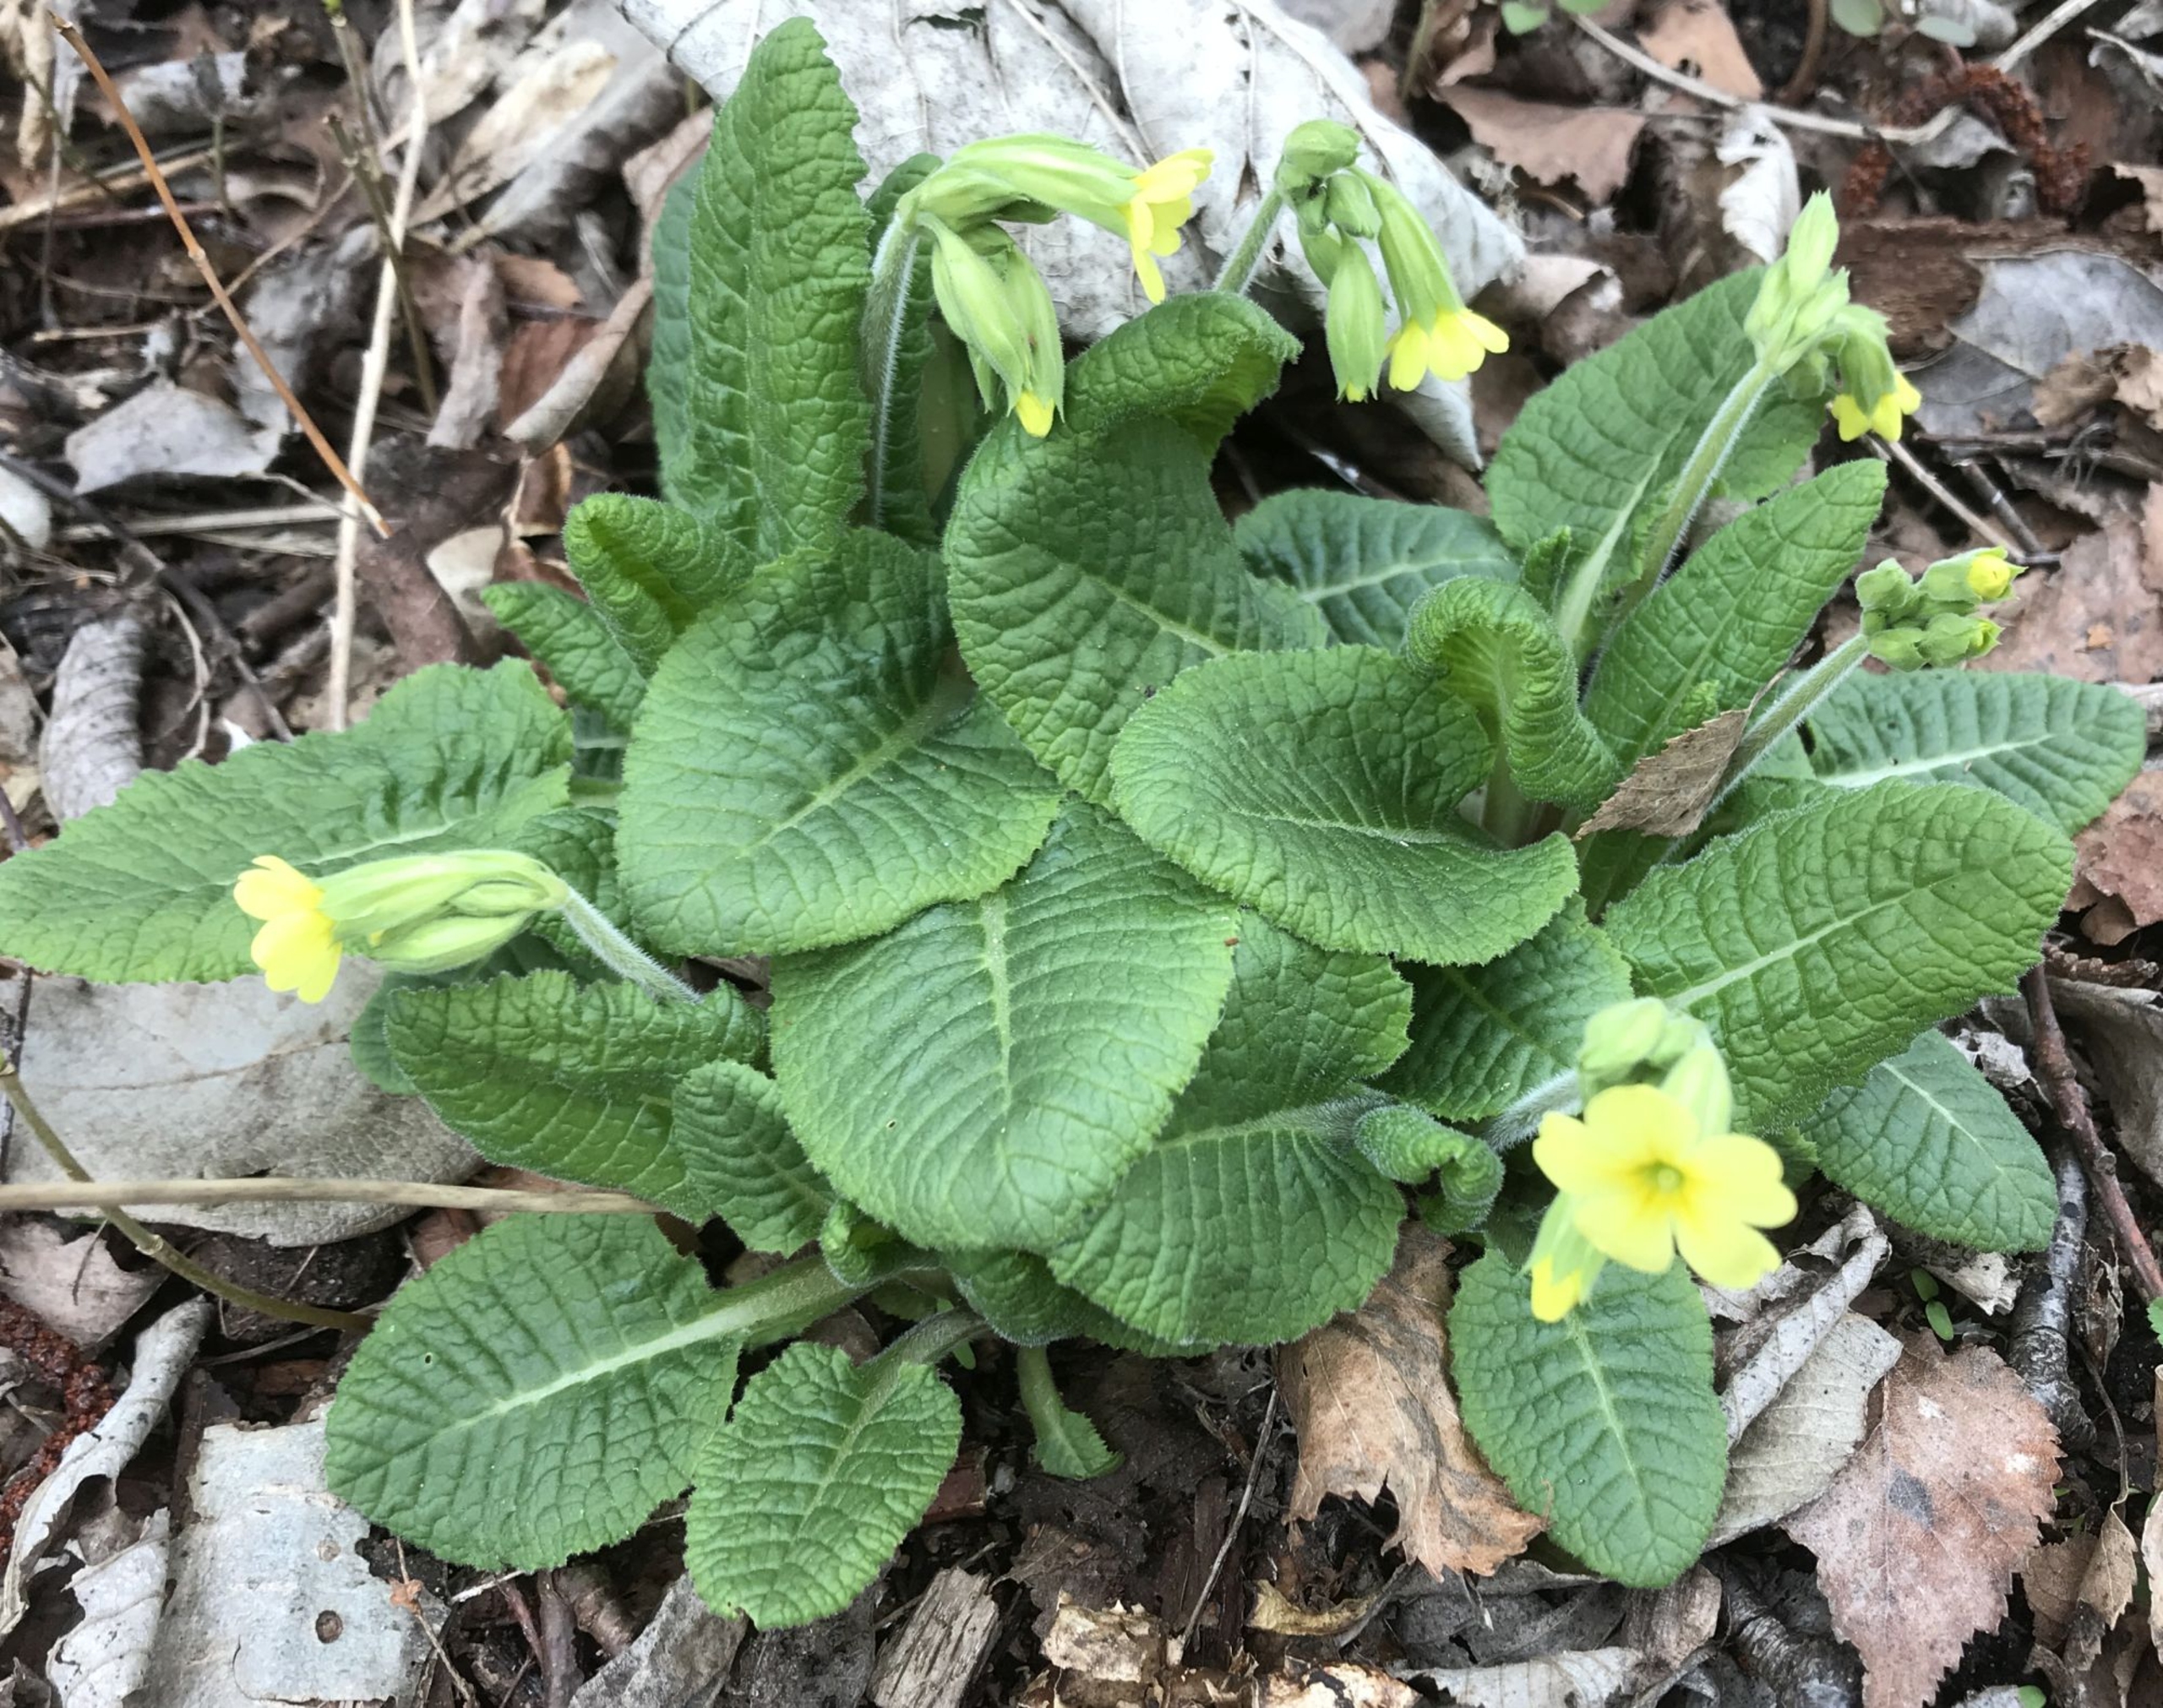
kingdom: Plantae
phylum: Tracheophyta
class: Magnoliopsida
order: Ericales
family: Primulaceae
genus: Primula
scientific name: Primula elatior
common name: Fladkravet kodriver
